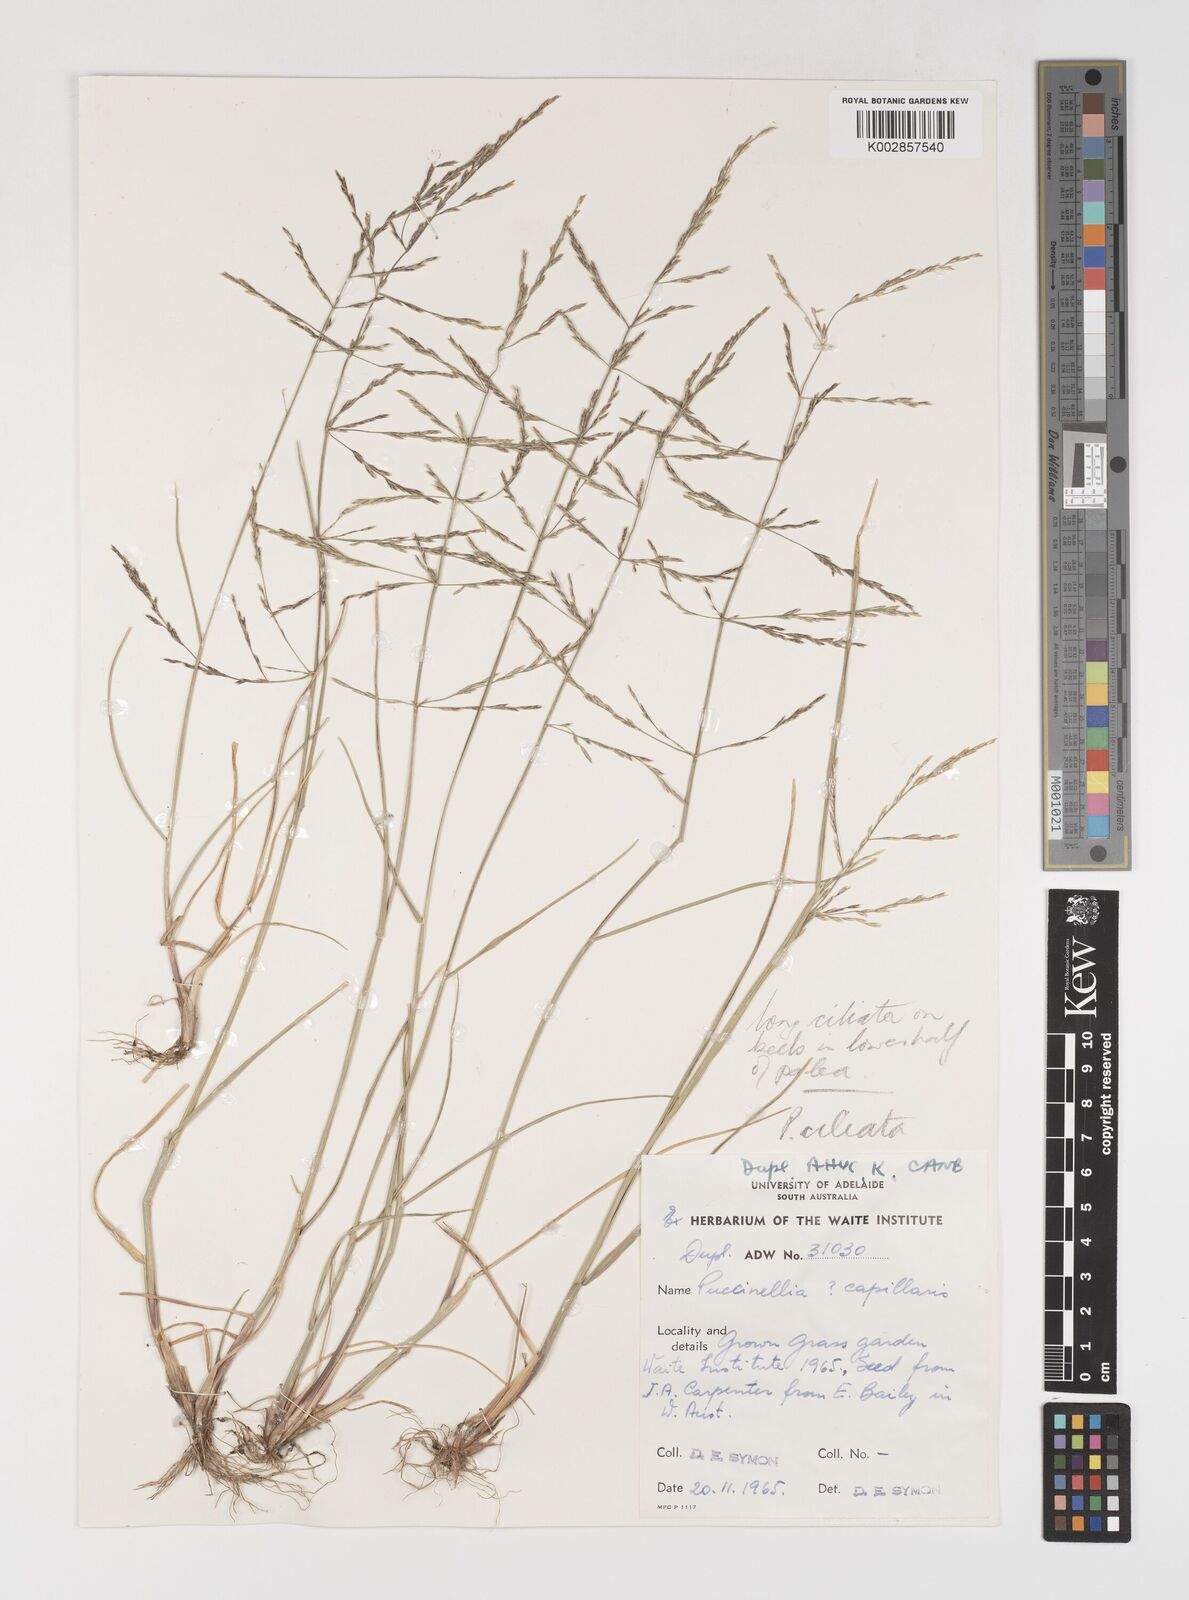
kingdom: Plantae
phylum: Tracheophyta
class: Liliopsida
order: Poales
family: Poaceae
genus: Puccinellia
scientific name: Puccinellia distans
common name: Weeping alkaligrass
